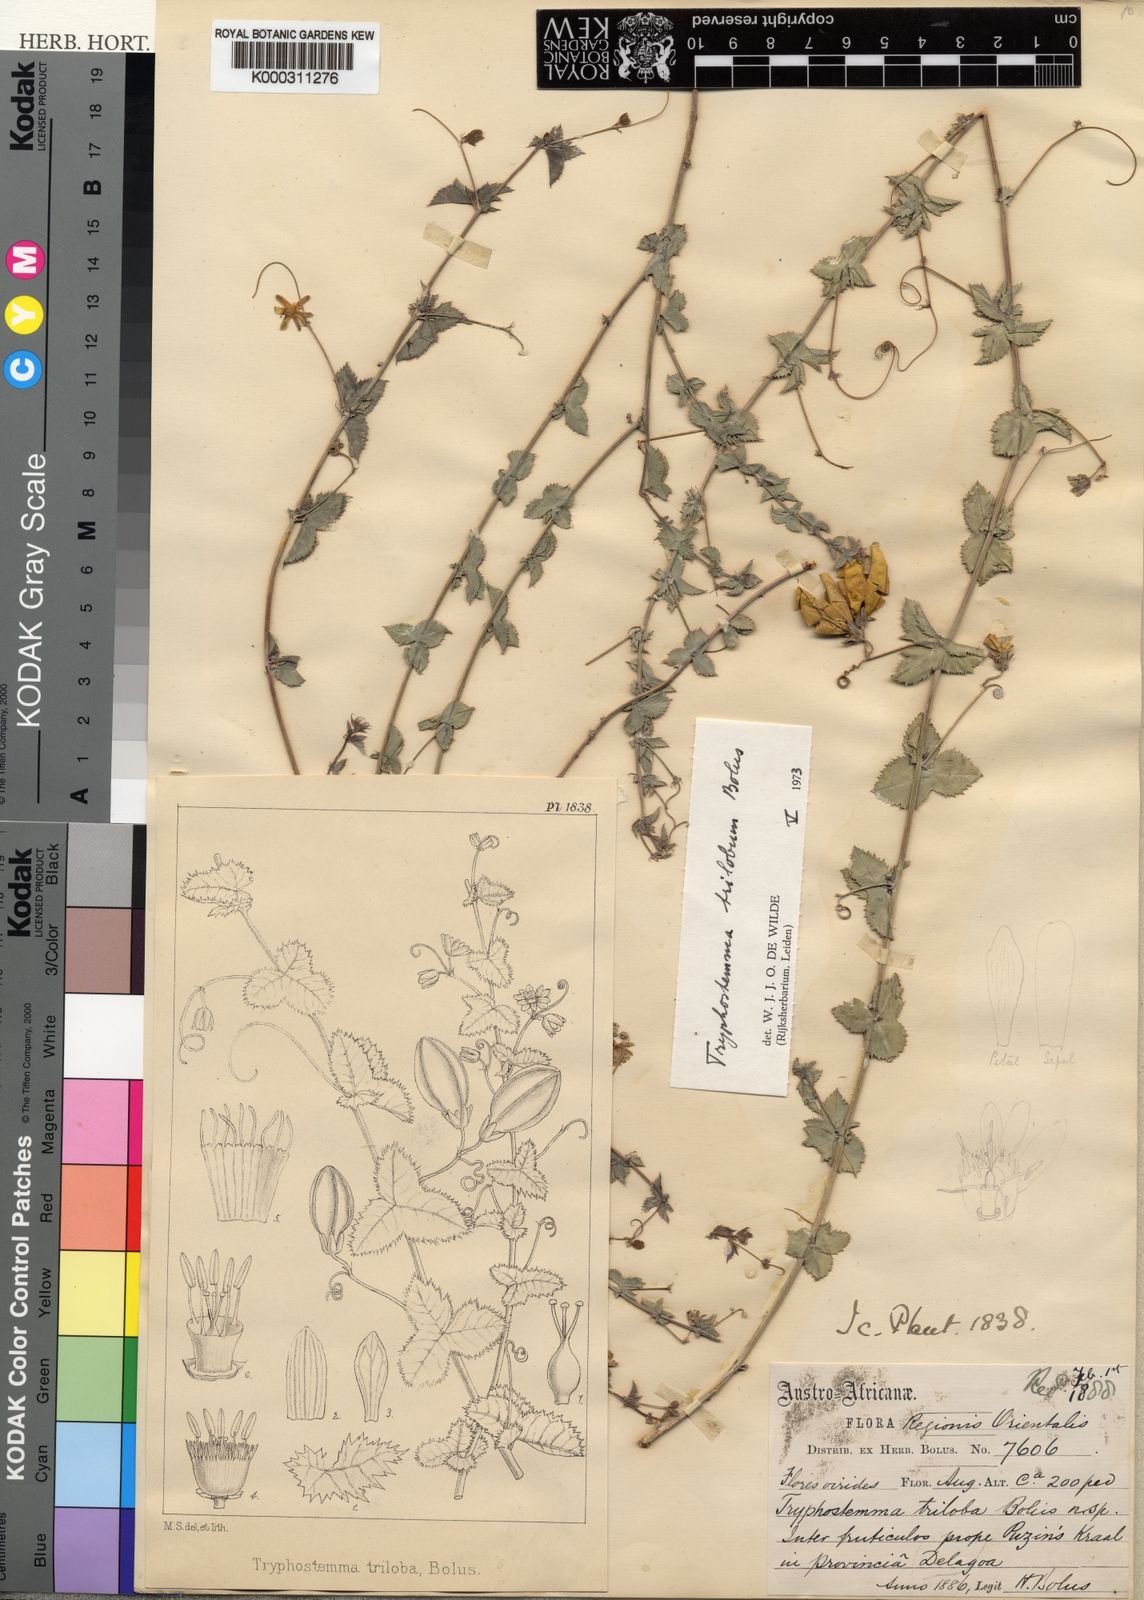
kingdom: Plantae
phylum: Tracheophyta
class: Magnoliopsida
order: Malpighiales
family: Passifloraceae
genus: Basananthe
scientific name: Basananthe triloba
